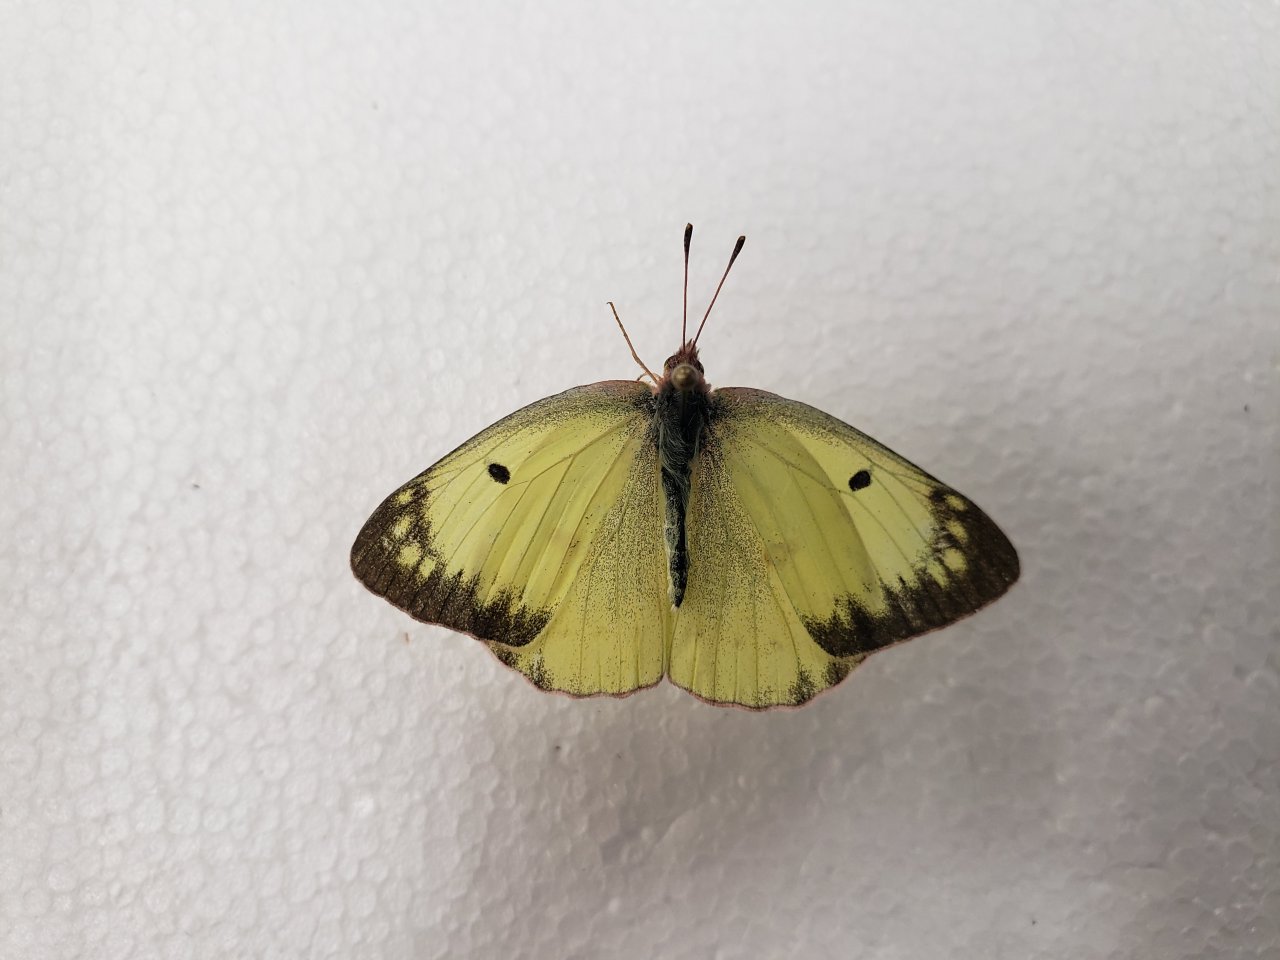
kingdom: Animalia
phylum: Arthropoda
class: Insecta
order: Lepidoptera
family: Pieridae
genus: Colias
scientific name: Colias philodice
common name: Clouded Sulphur
